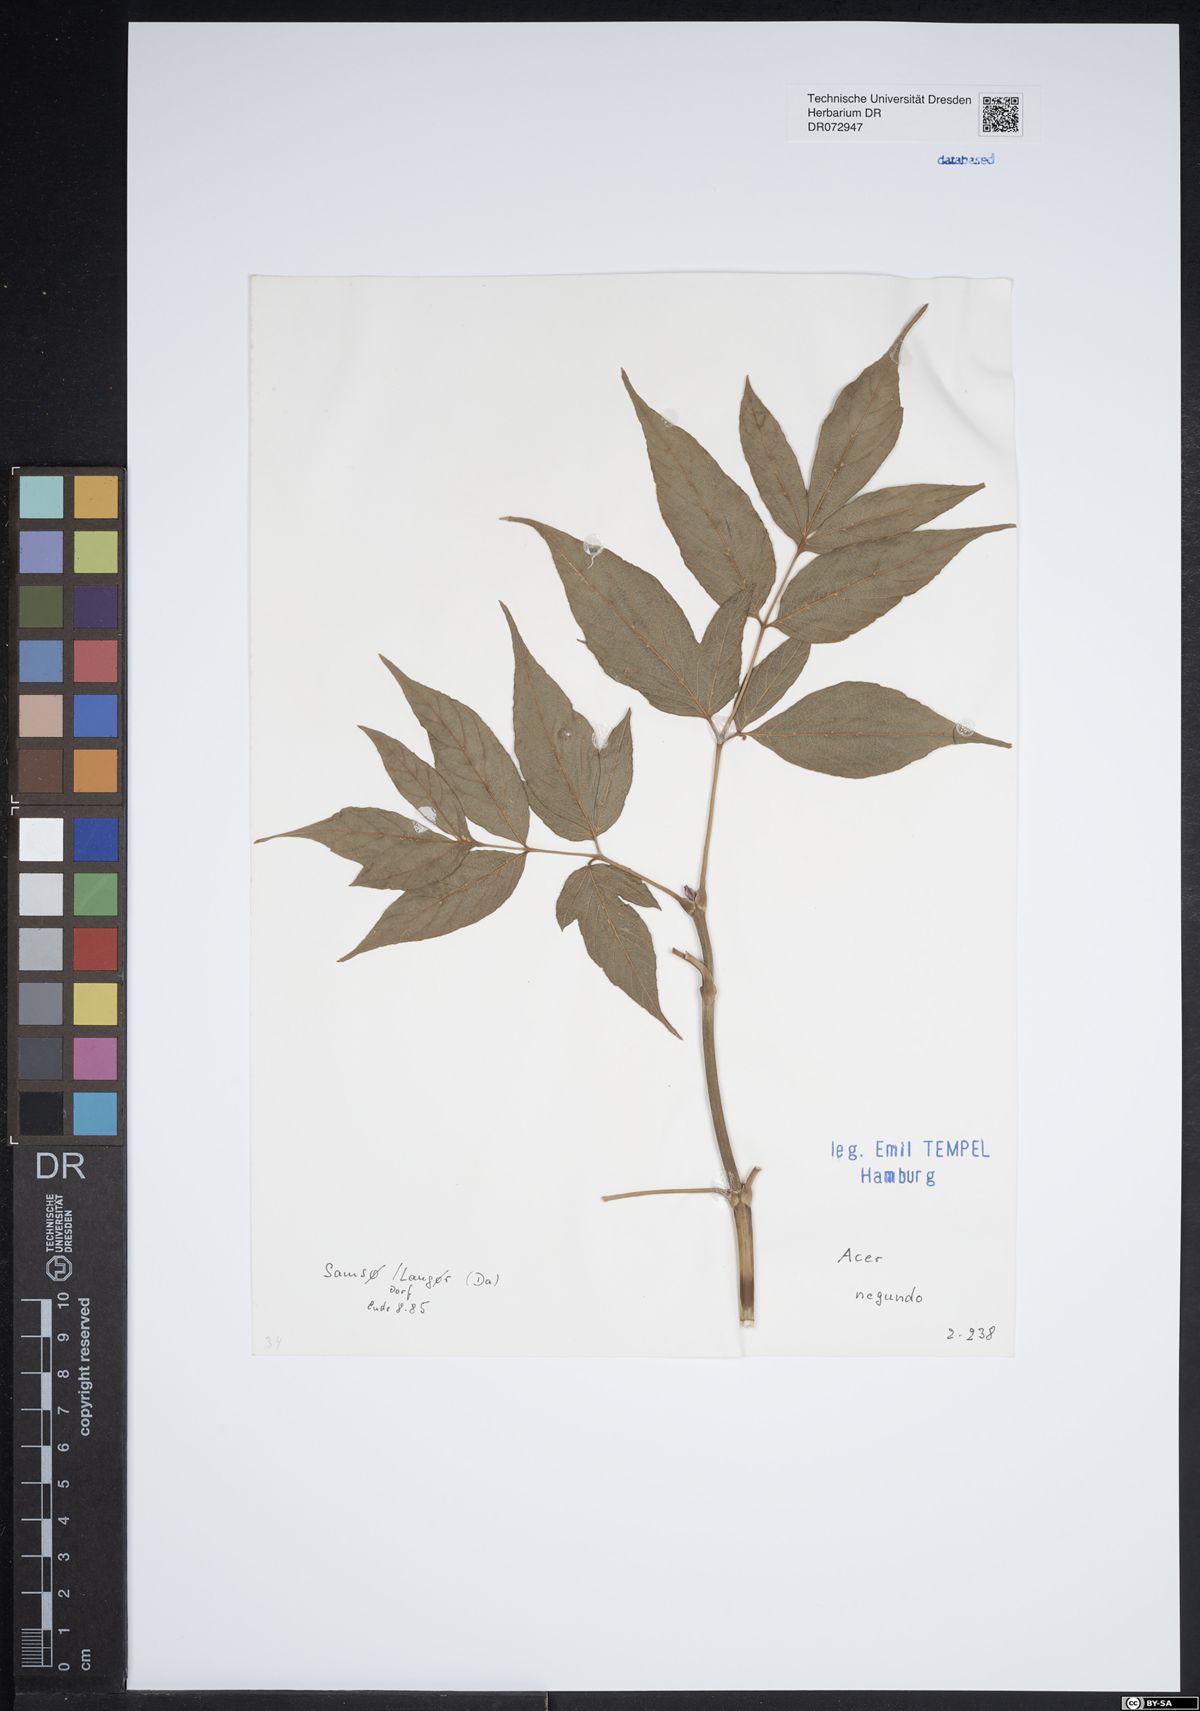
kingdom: Plantae
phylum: Tracheophyta
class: Magnoliopsida
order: Sapindales
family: Sapindaceae
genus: Acer
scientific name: Acer negundo
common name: Ashleaf maple
